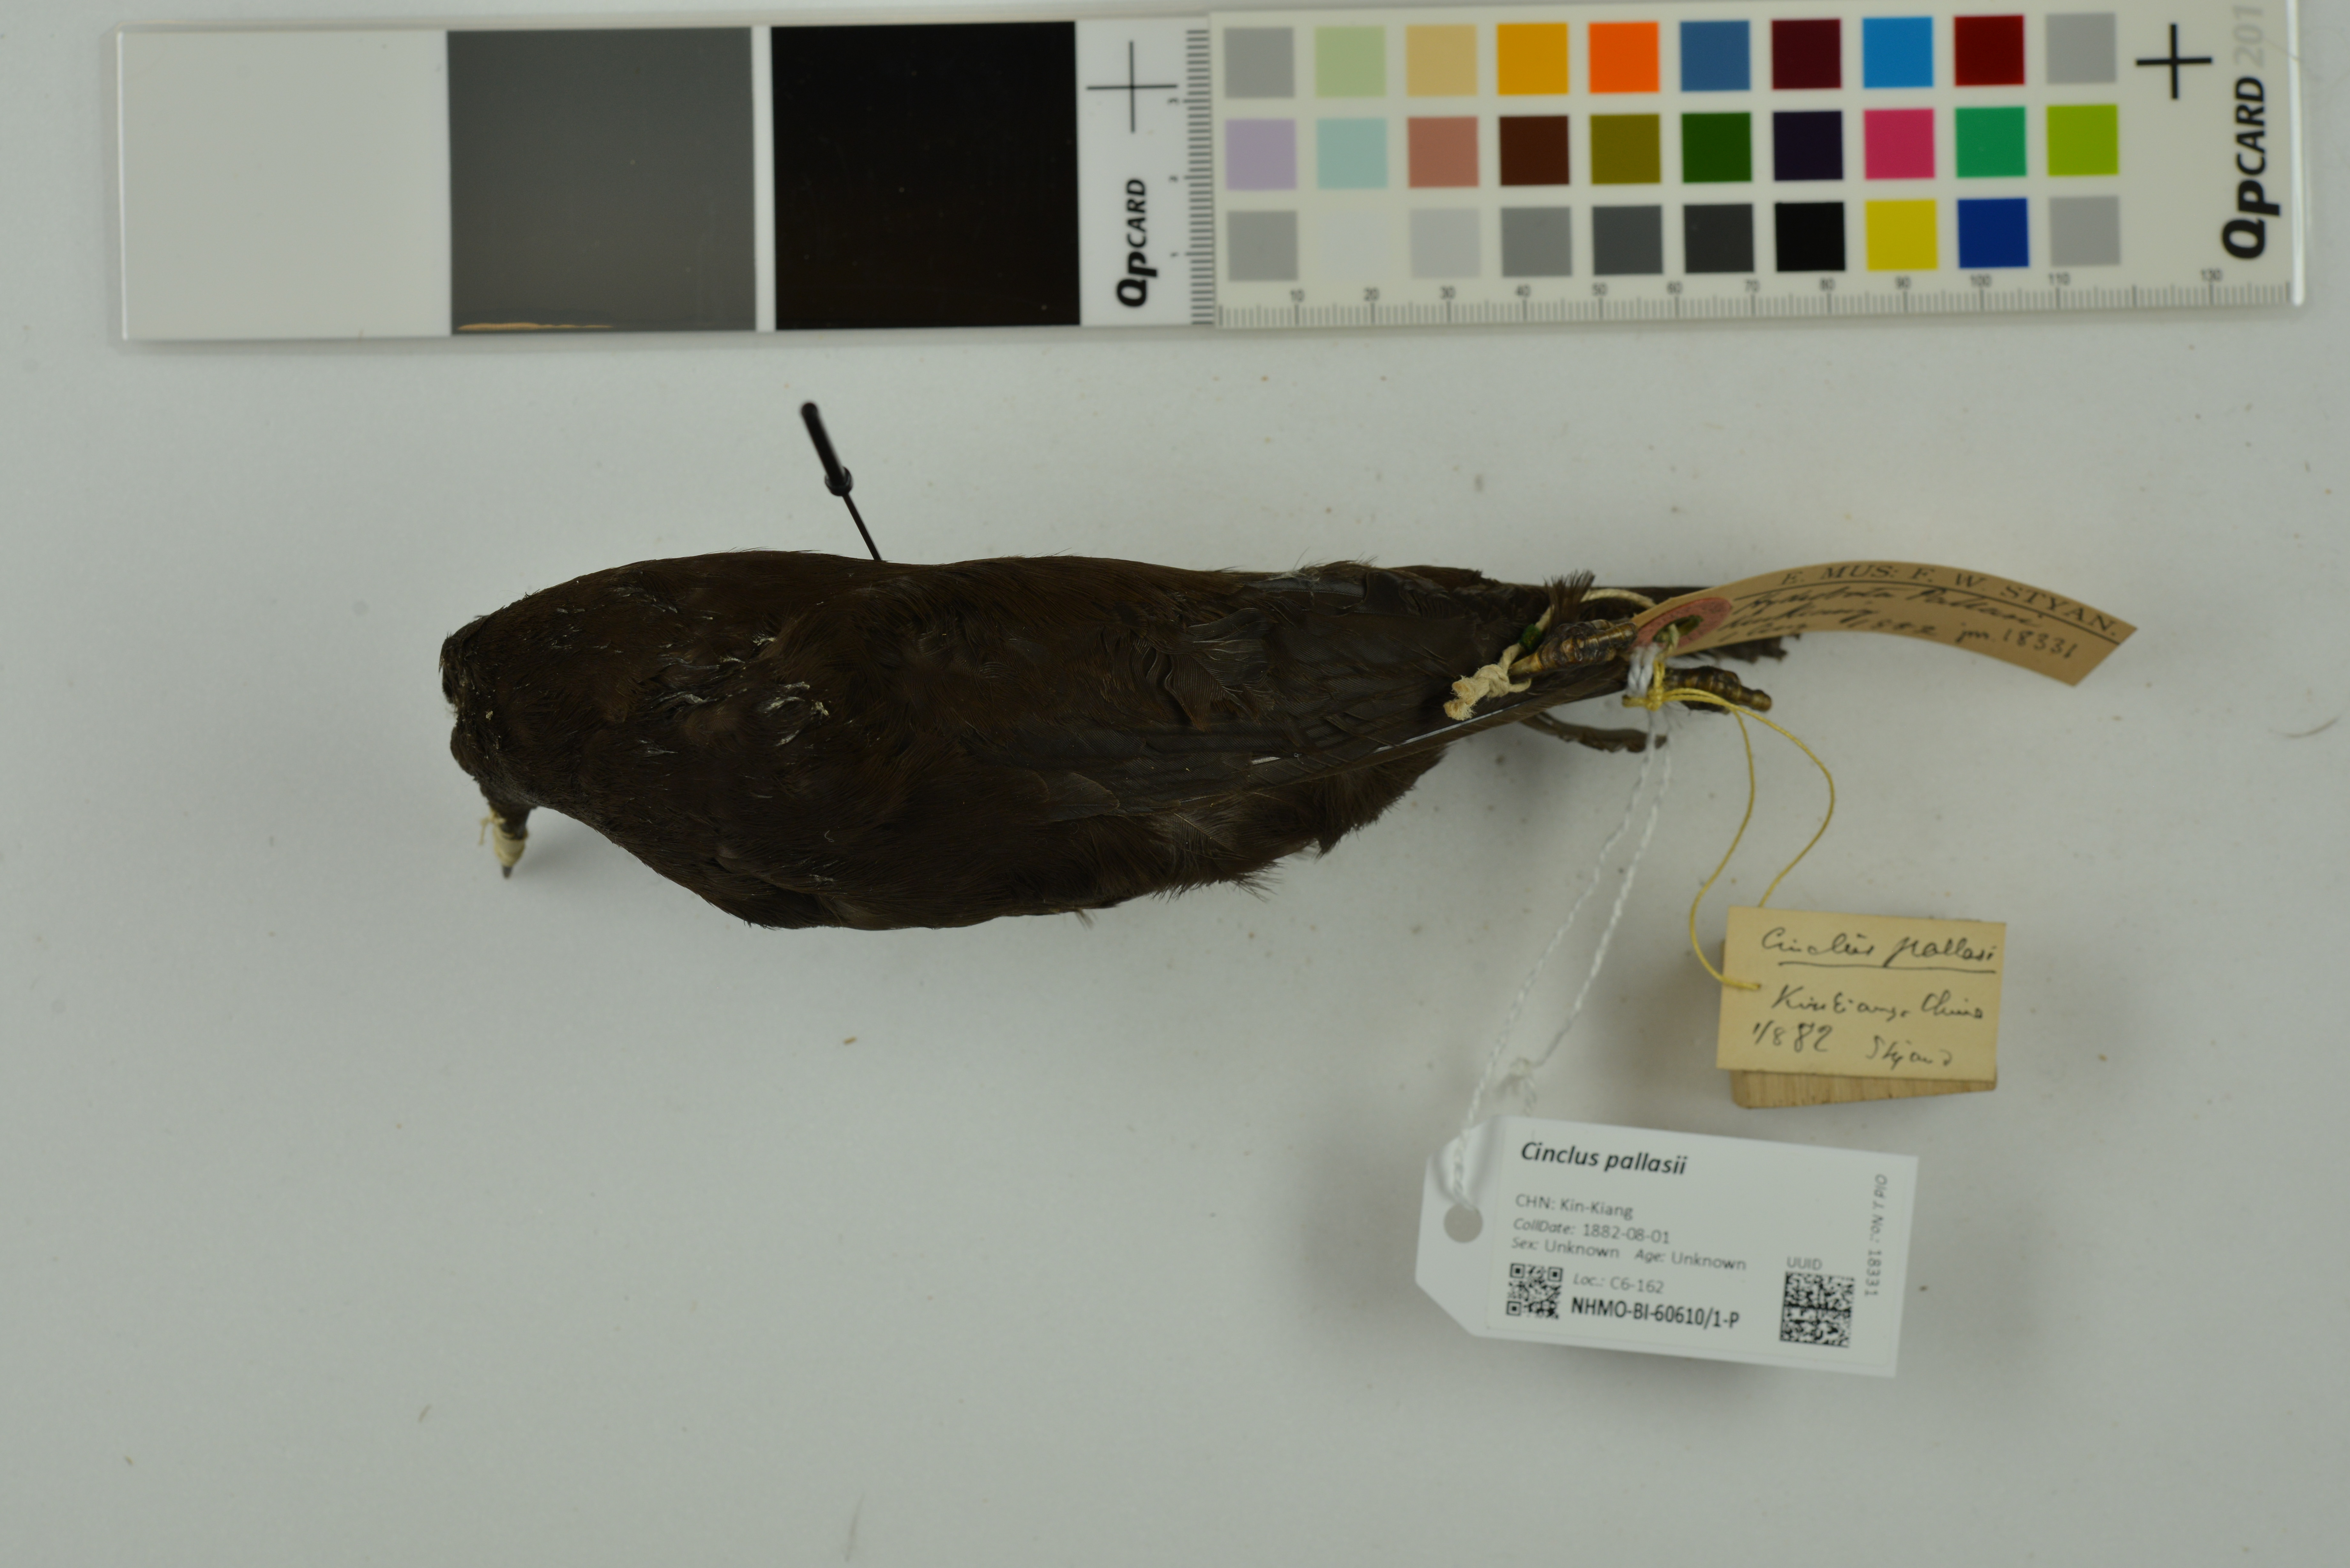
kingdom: Animalia
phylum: Chordata
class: Aves
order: Passeriformes
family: Cinclidae
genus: Cinclus
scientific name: Cinclus pallasii
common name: Brown dipper
